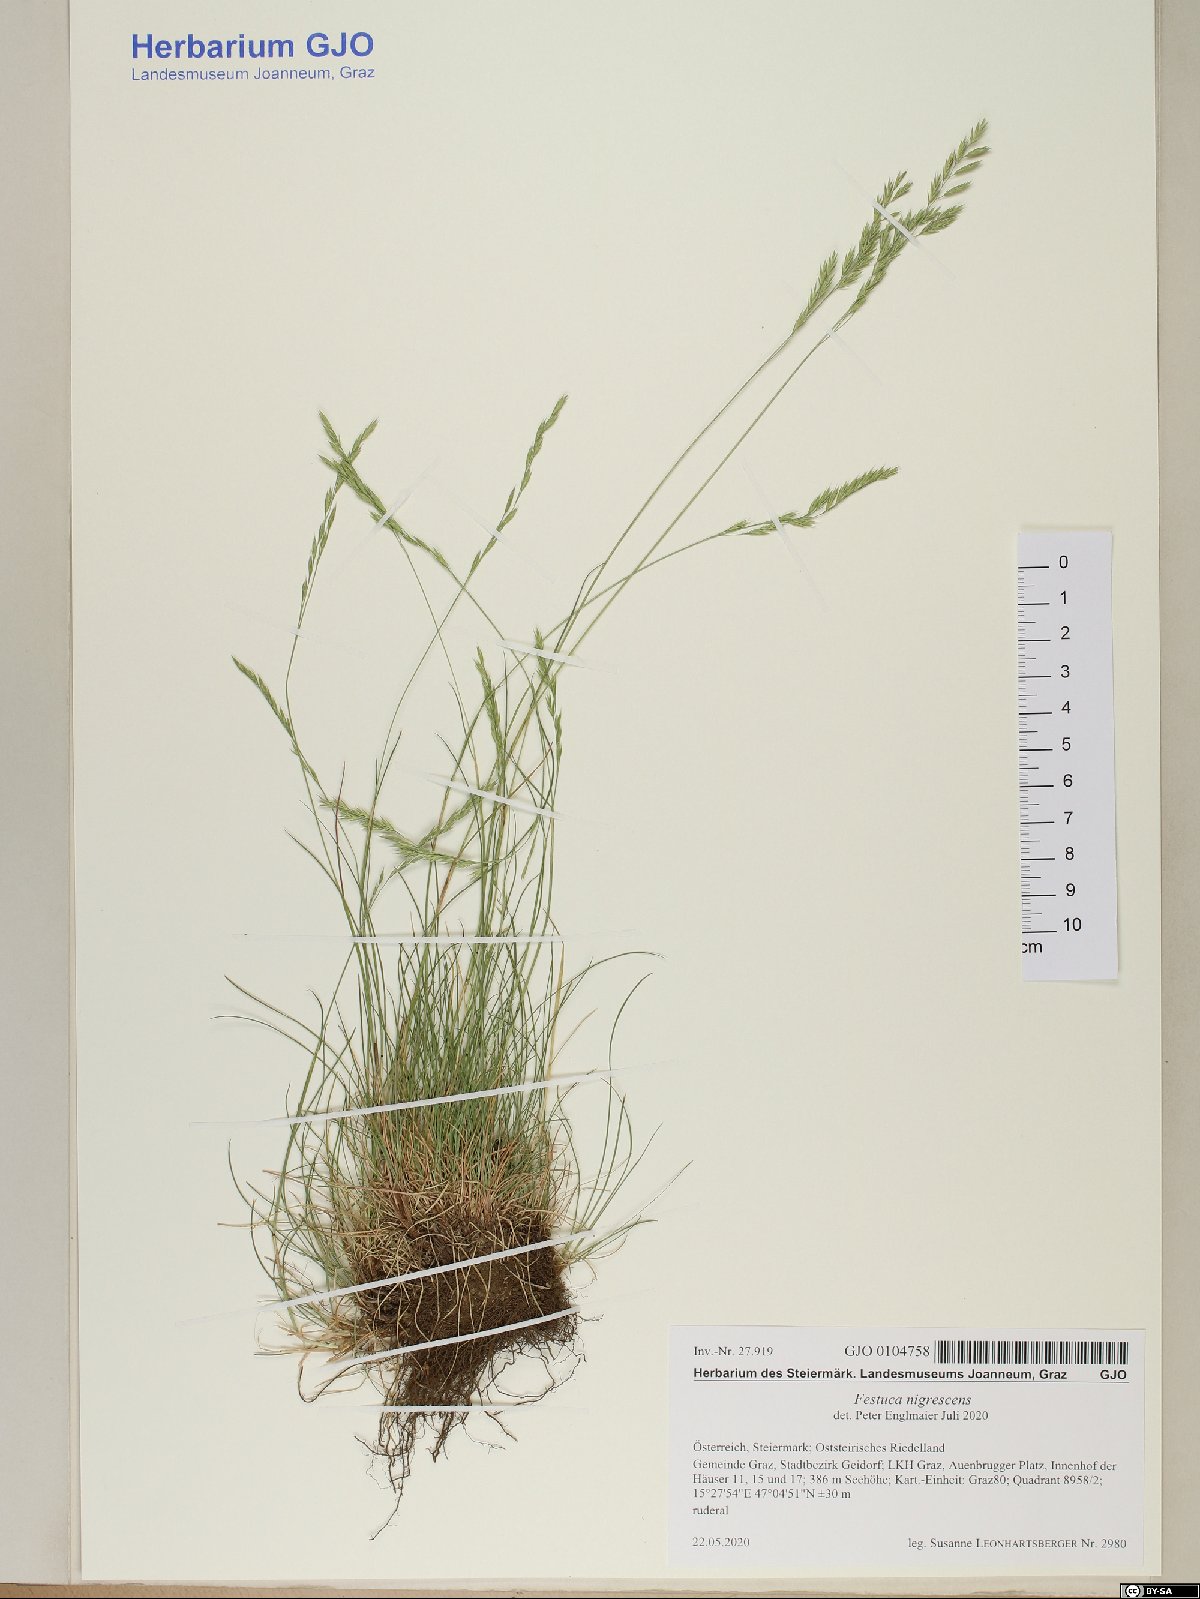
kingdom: Plantae
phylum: Tracheophyta
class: Liliopsida
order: Poales
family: Poaceae
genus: Festuca
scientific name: Festuca nigrescens
